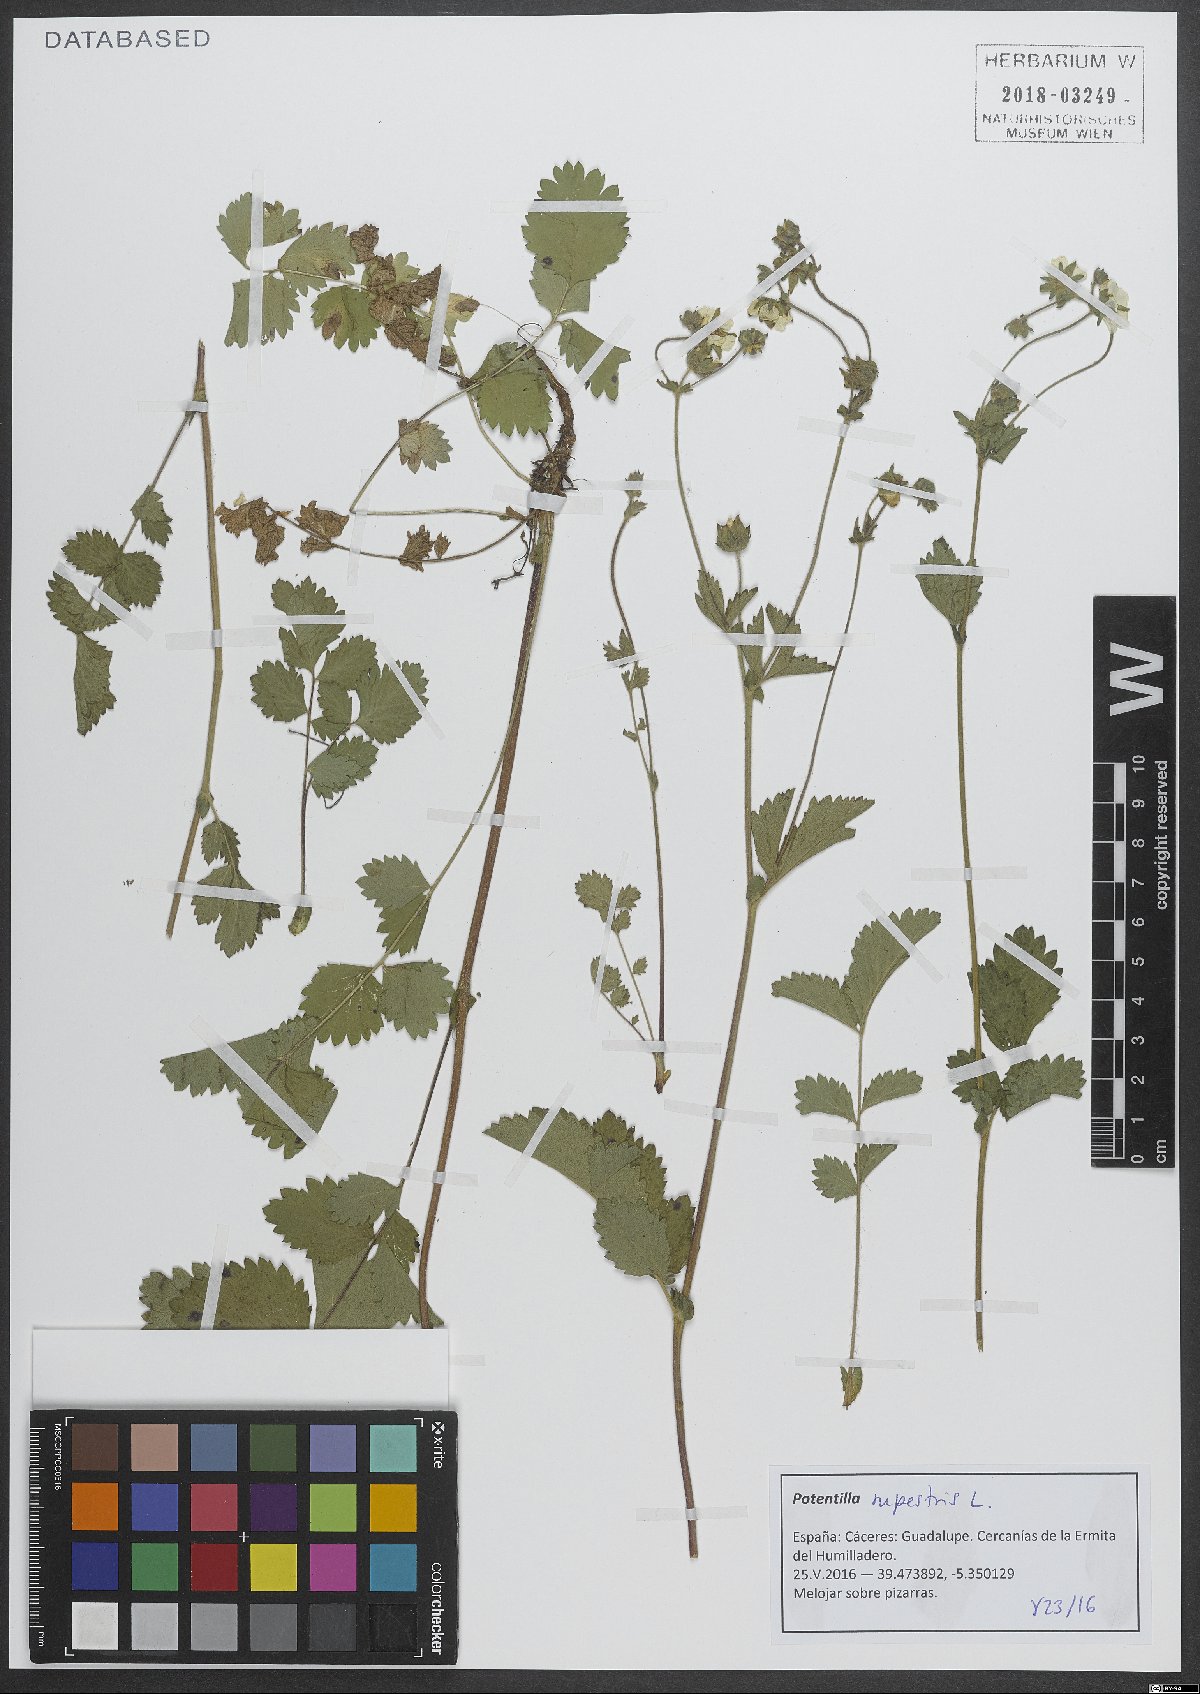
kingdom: Plantae
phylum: Tracheophyta
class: Magnoliopsida
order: Rosales
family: Rosaceae
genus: Drymocallis
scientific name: Drymocallis rupestris
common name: Rock cinquefoil
